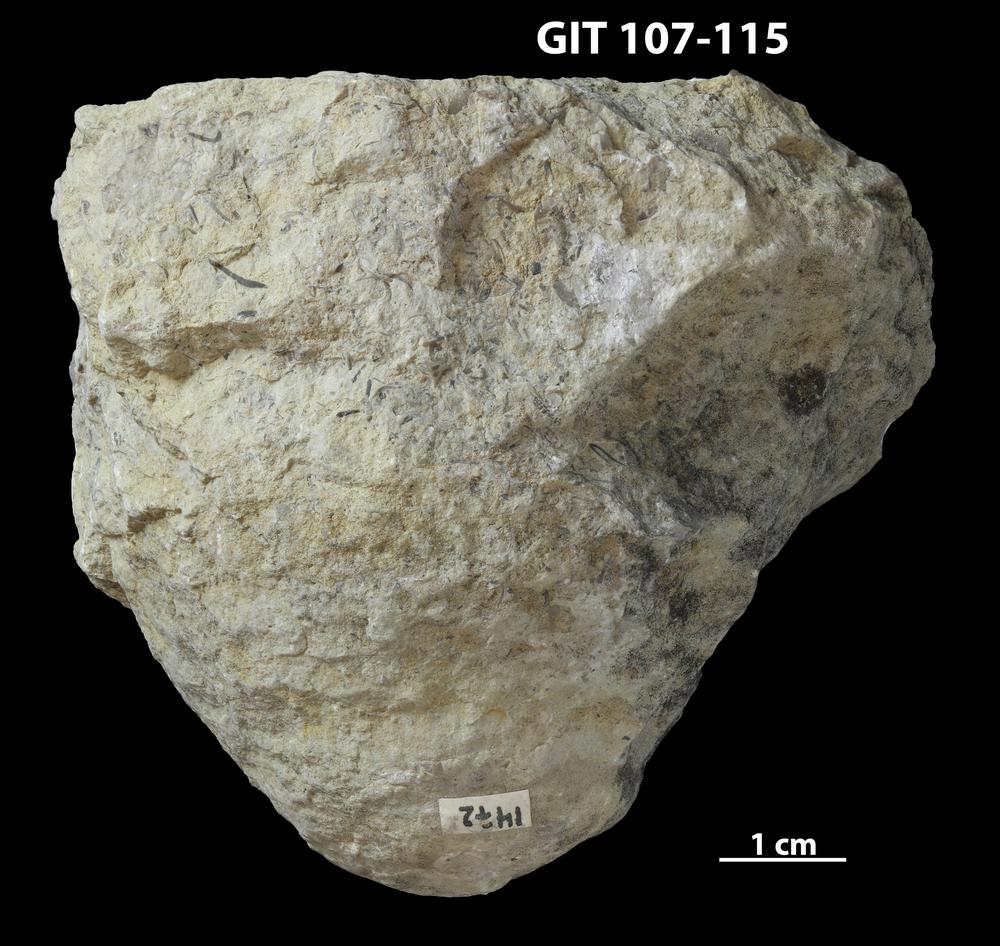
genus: Conichnus
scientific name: Conichnus
